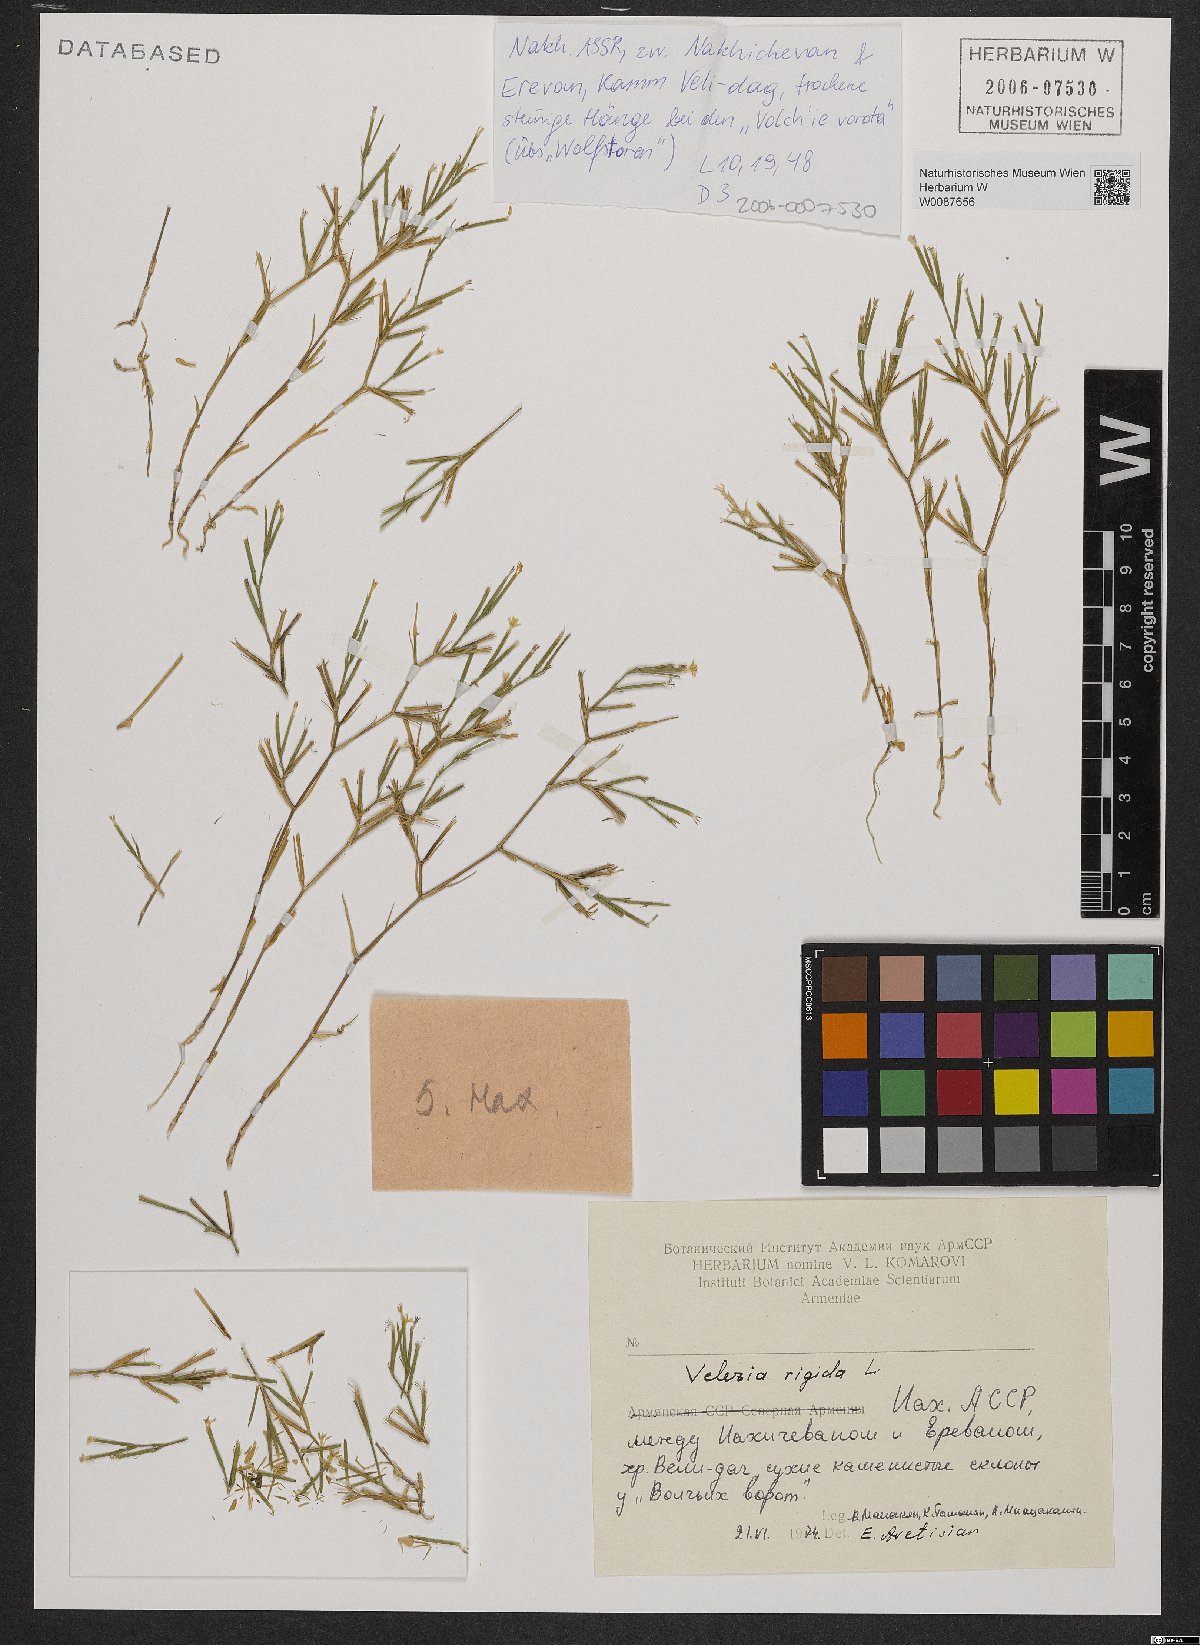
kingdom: Plantae
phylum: Tracheophyta
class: Magnoliopsida
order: Caryophyllales
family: Caryophyllaceae
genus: Dianthus
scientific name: Dianthus nudiflorus
